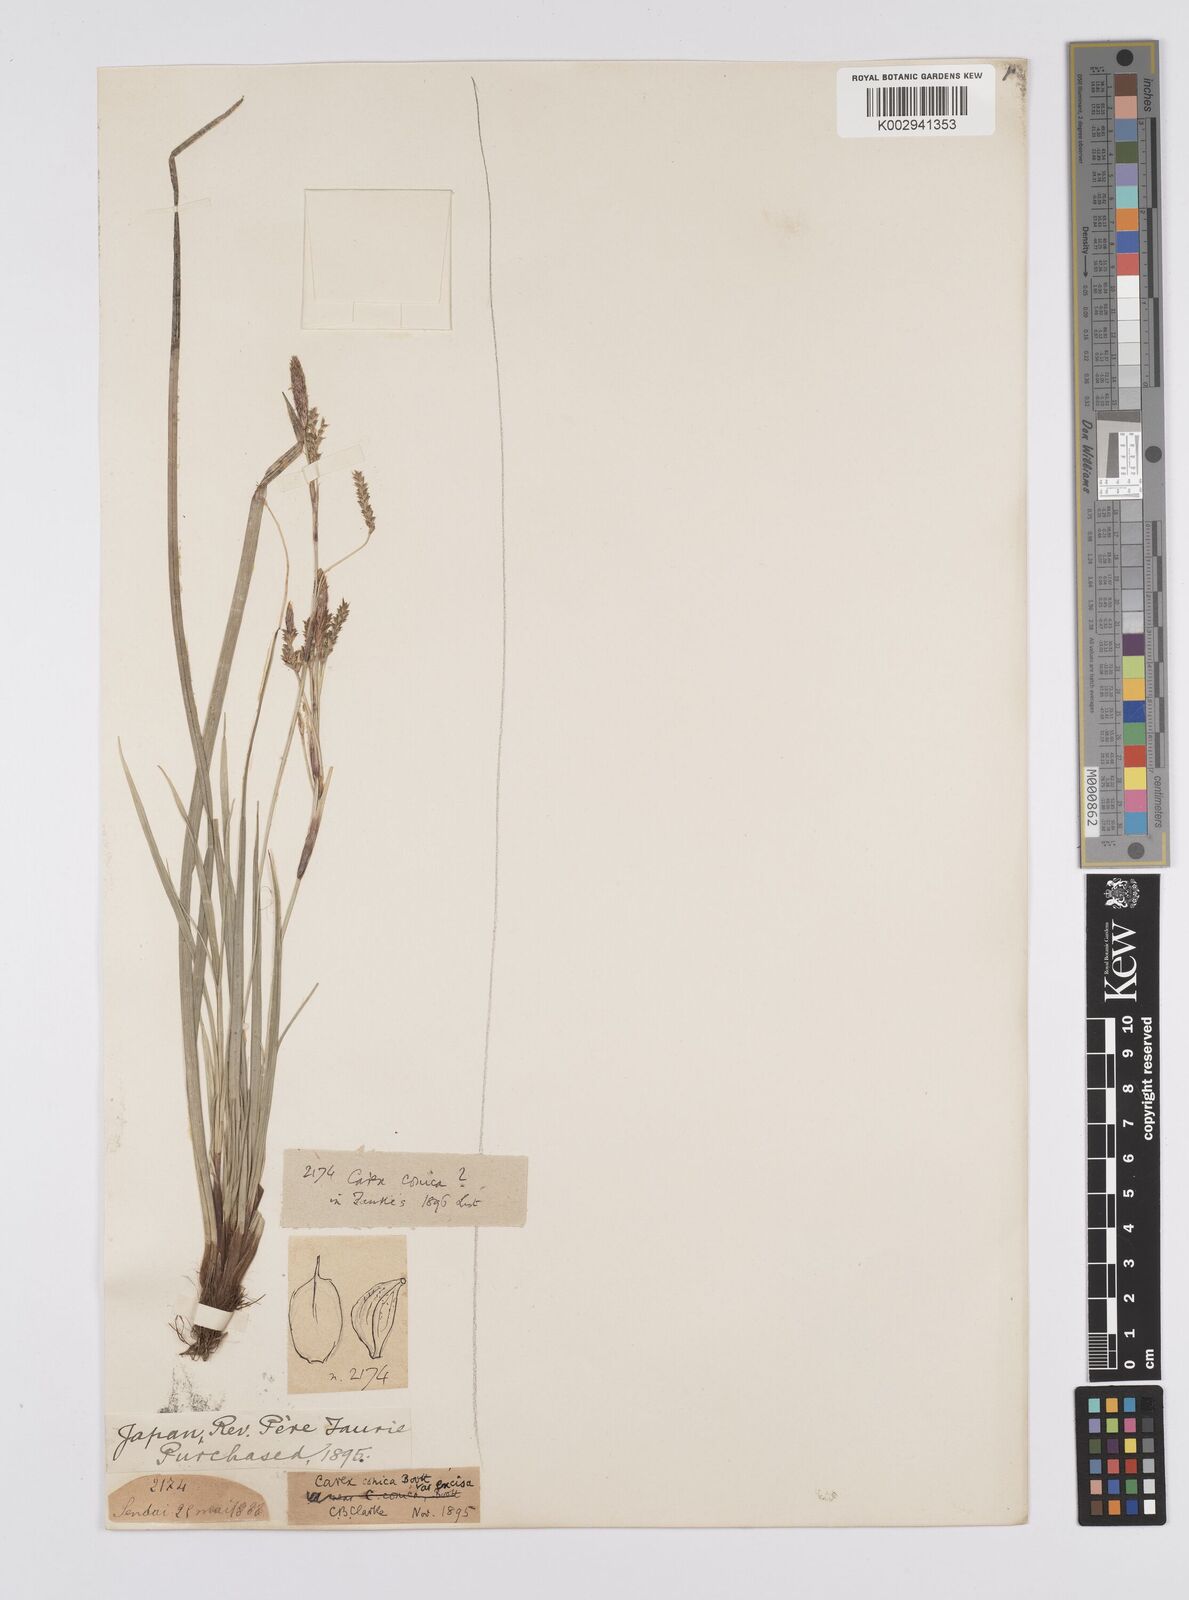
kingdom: Plantae
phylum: Tracheophyta
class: Liliopsida
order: Poales
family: Cyperaceae
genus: Carex
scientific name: Carex conica
